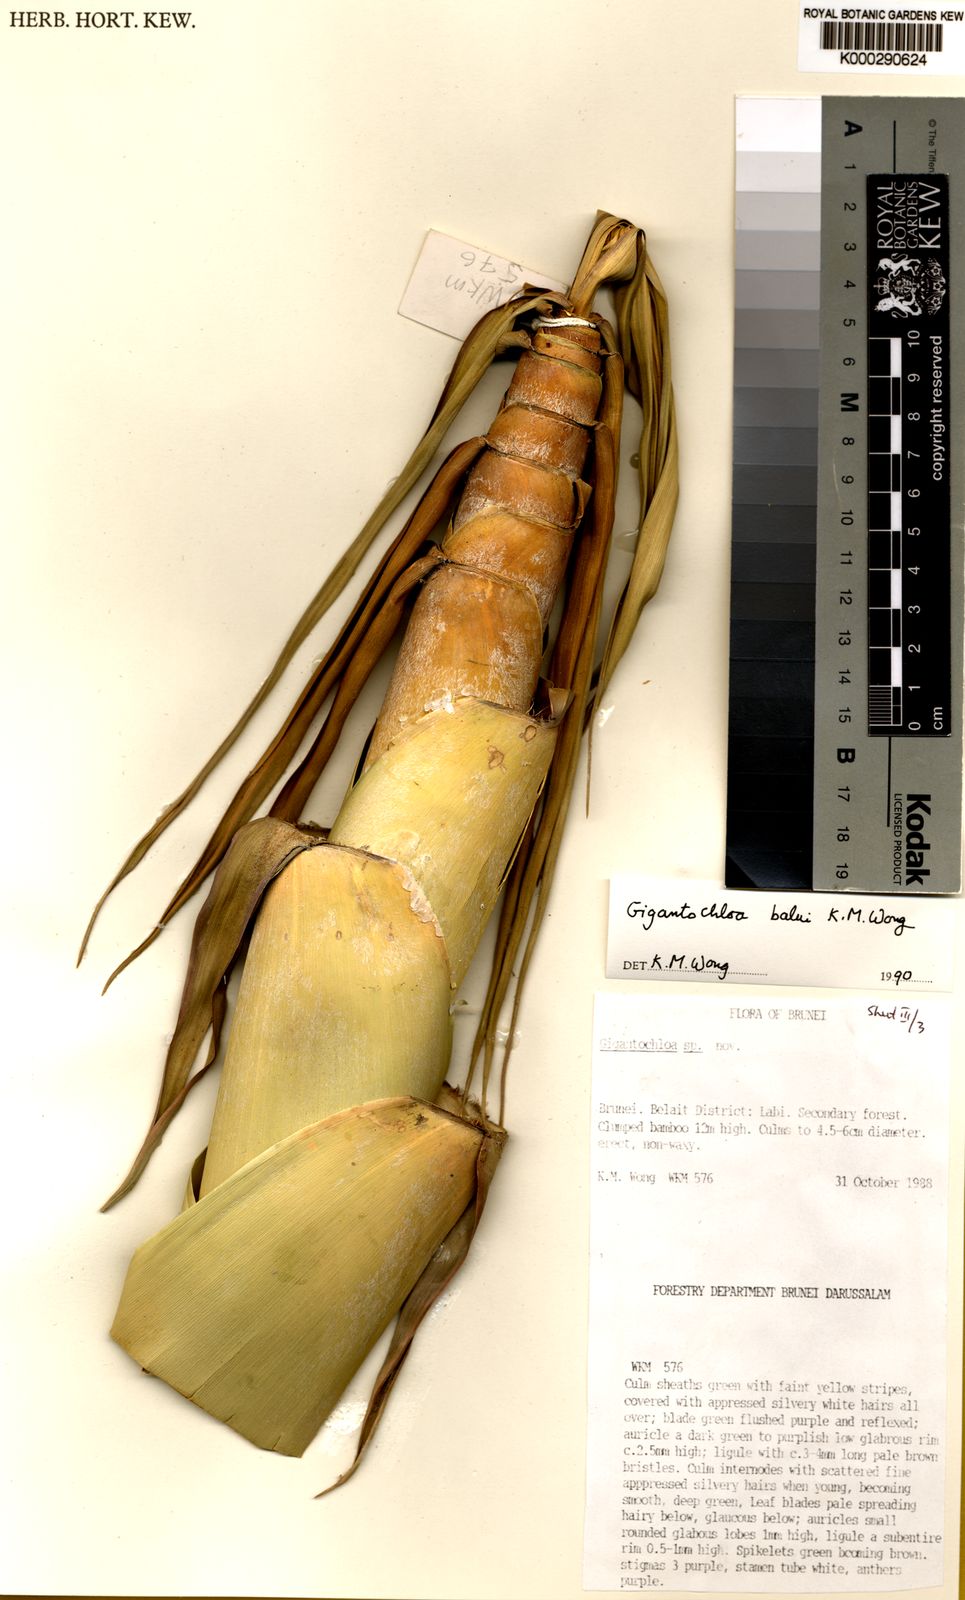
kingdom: Plantae
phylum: Tracheophyta
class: Liliopsida
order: Poales
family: Poaceae
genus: Gigantochloa
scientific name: Gigantochloa balui
